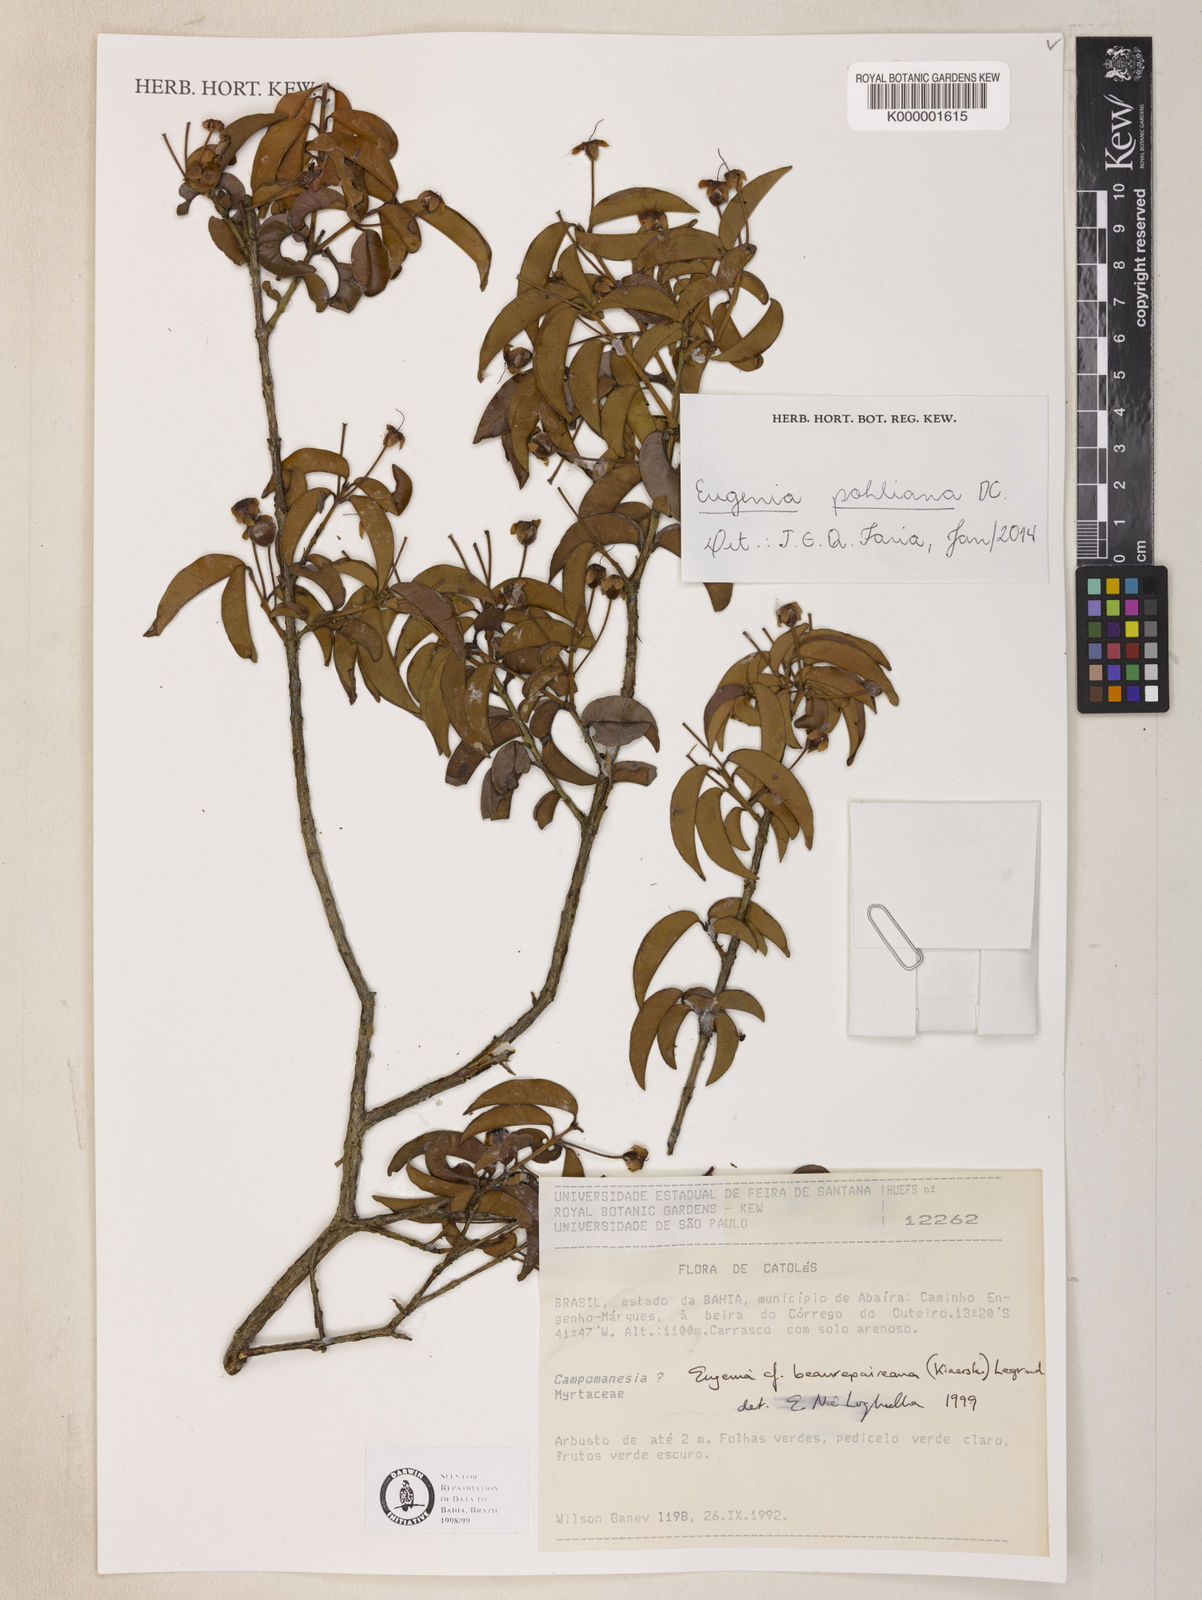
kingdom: Plantae
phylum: Tracheophyta
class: Magnoliopsida
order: Myrtales
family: Myrtaceae
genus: Eugenia
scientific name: Eugenia pohliana
